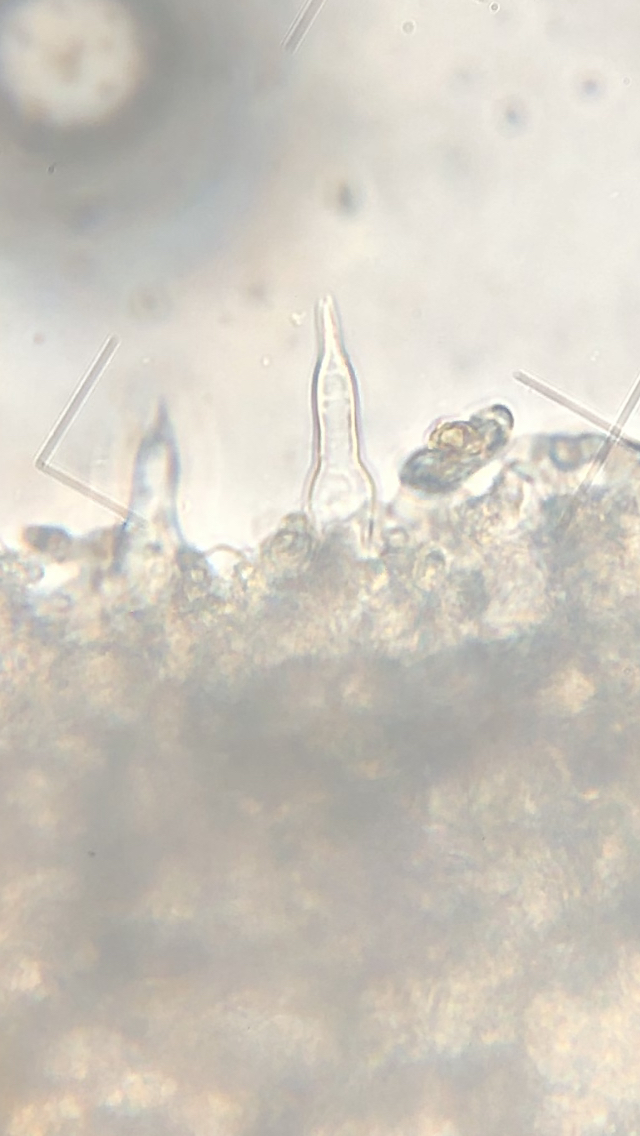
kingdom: Fungi
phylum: Basidiomycota
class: Agaricomycetes
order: Agaricales
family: Tricholomataceae
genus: Melanoleuca
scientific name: Melanoleuca
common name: munkehat
